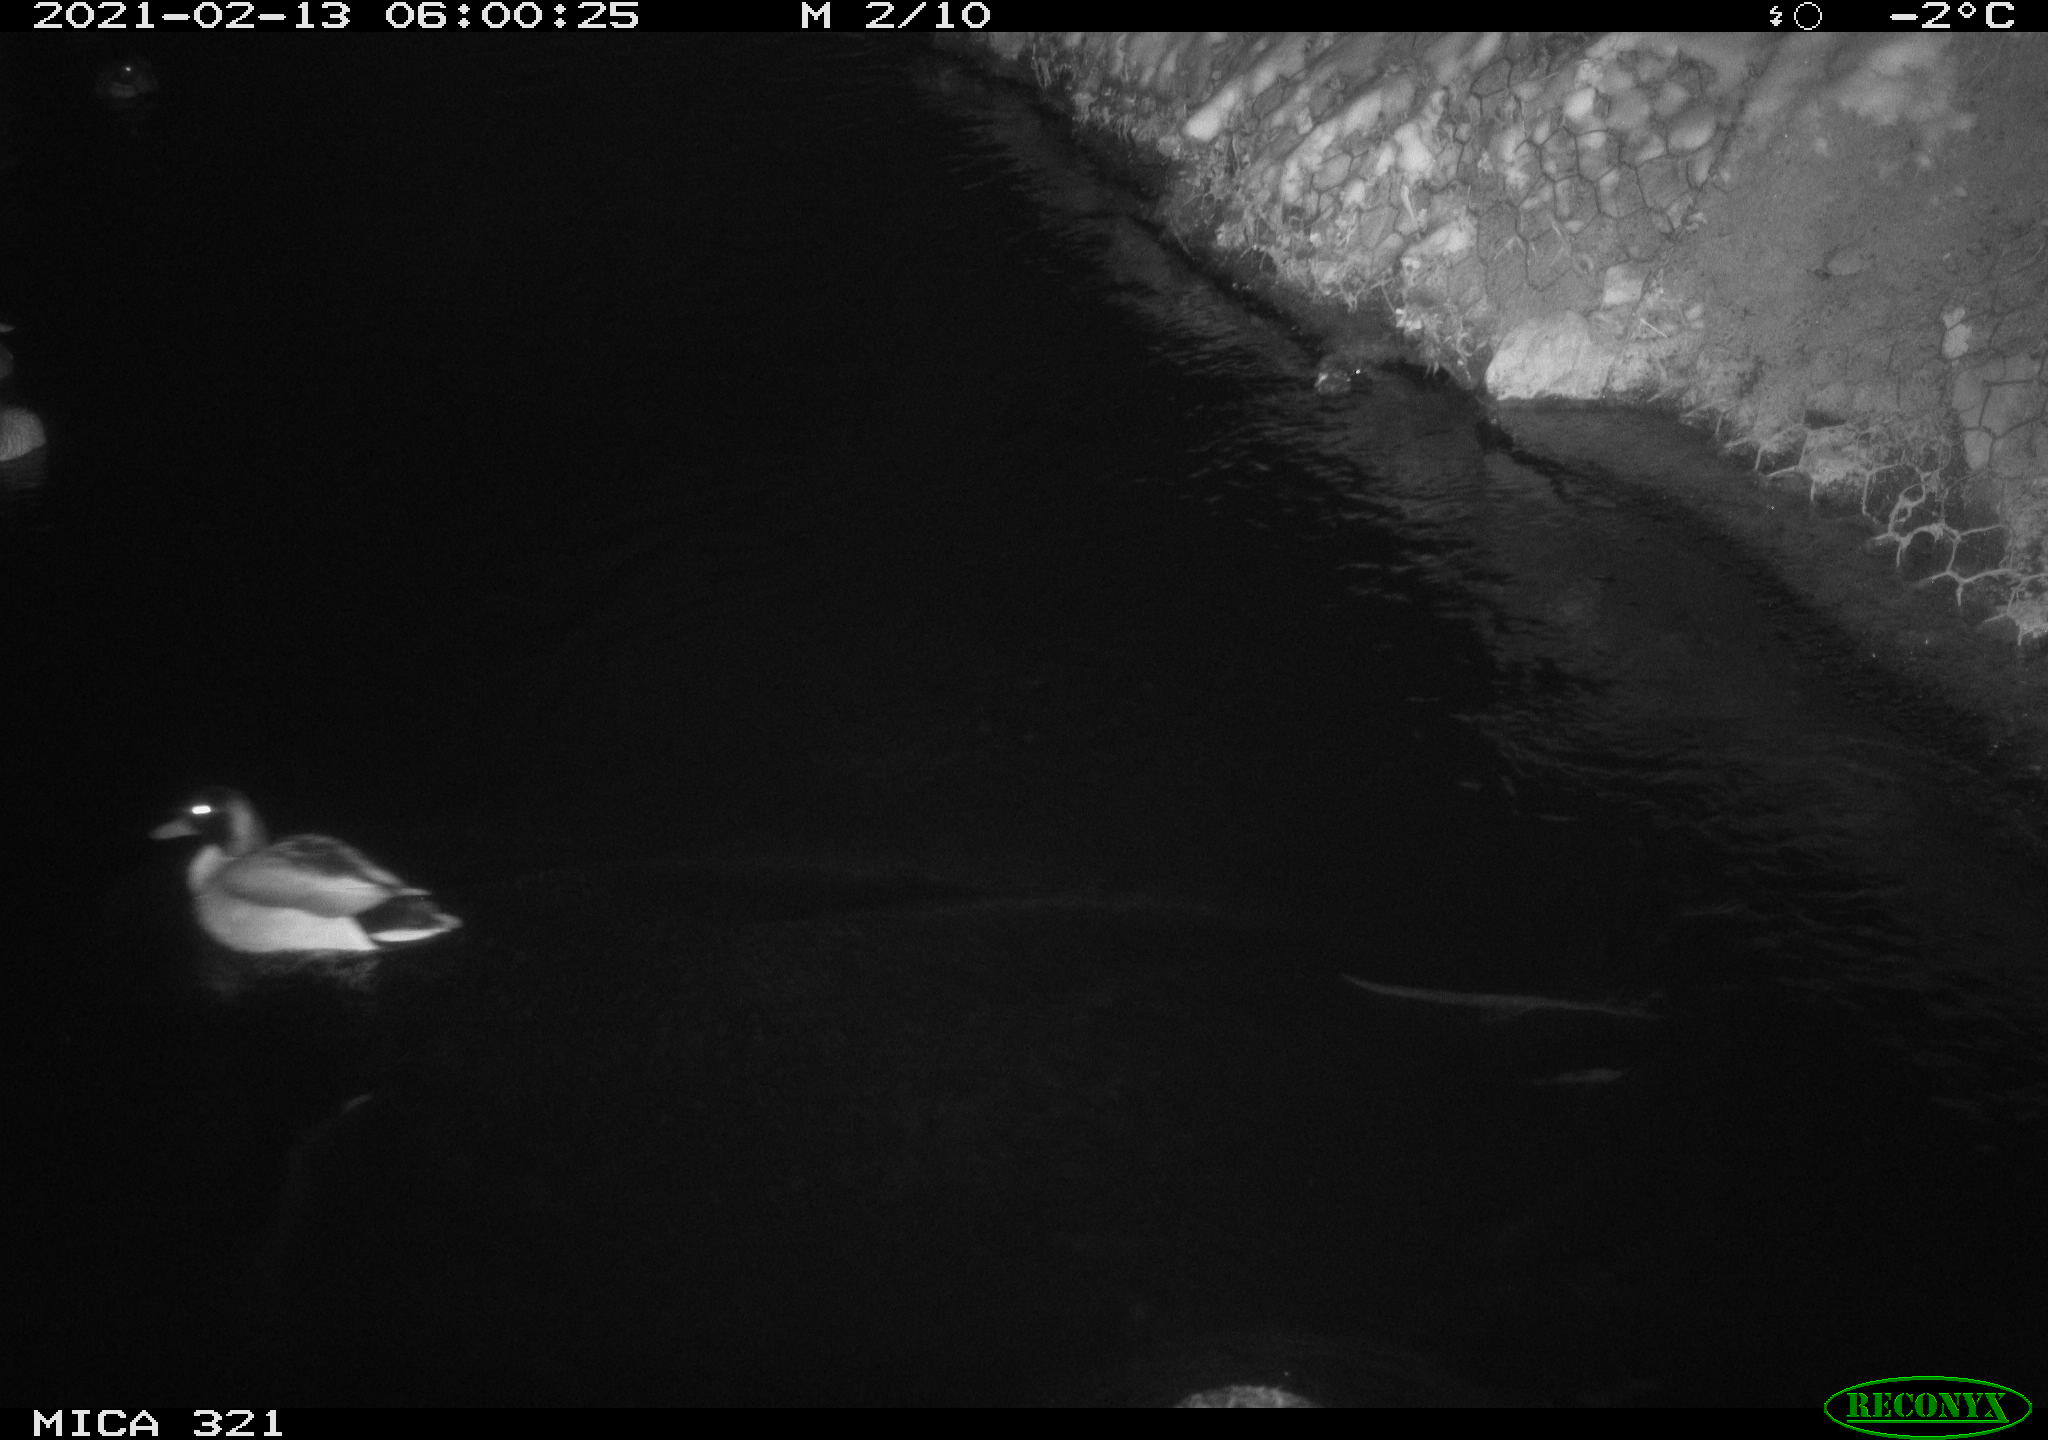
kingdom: Animalia
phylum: Chordata
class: Aves
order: Anseriformes
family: Anatidae
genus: Anas
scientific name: Anas platyrhynchos
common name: Mallard
